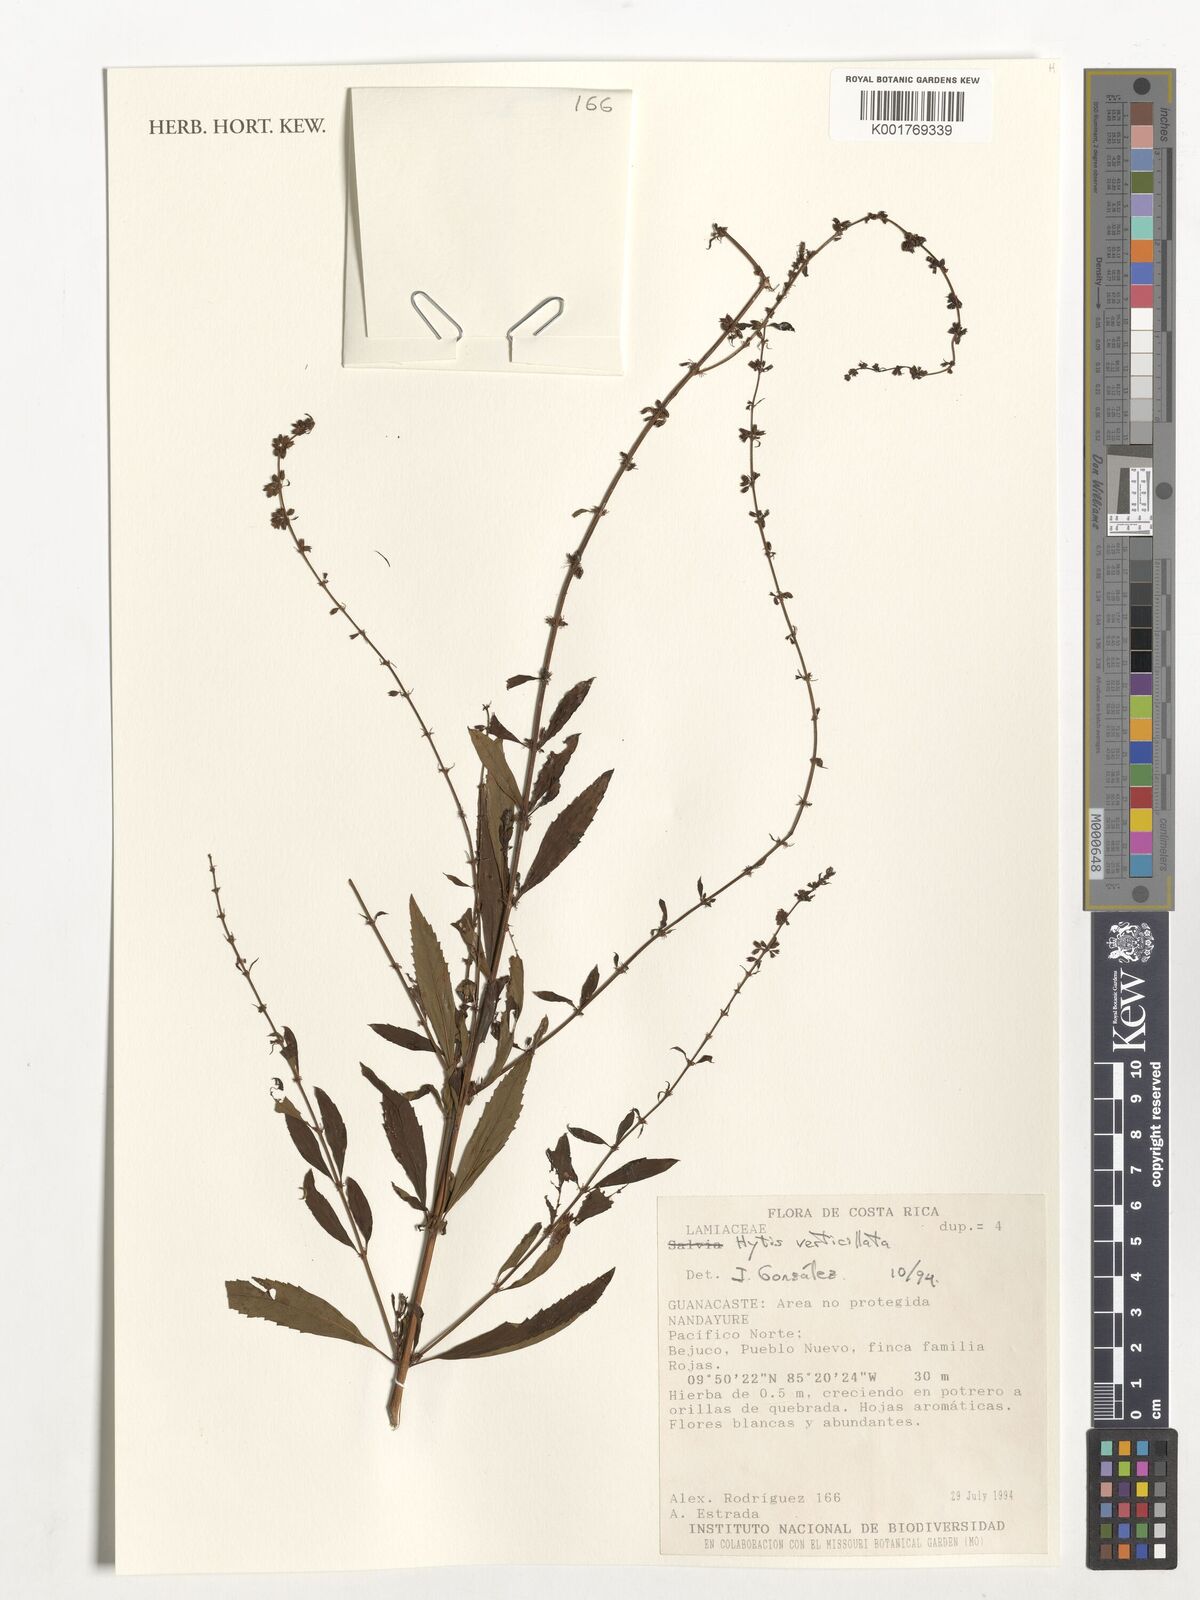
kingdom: Plantae
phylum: Tracheophyta
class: Magnoliopsida
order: Lamiales
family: Lamiaceae
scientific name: Lamiaceae
